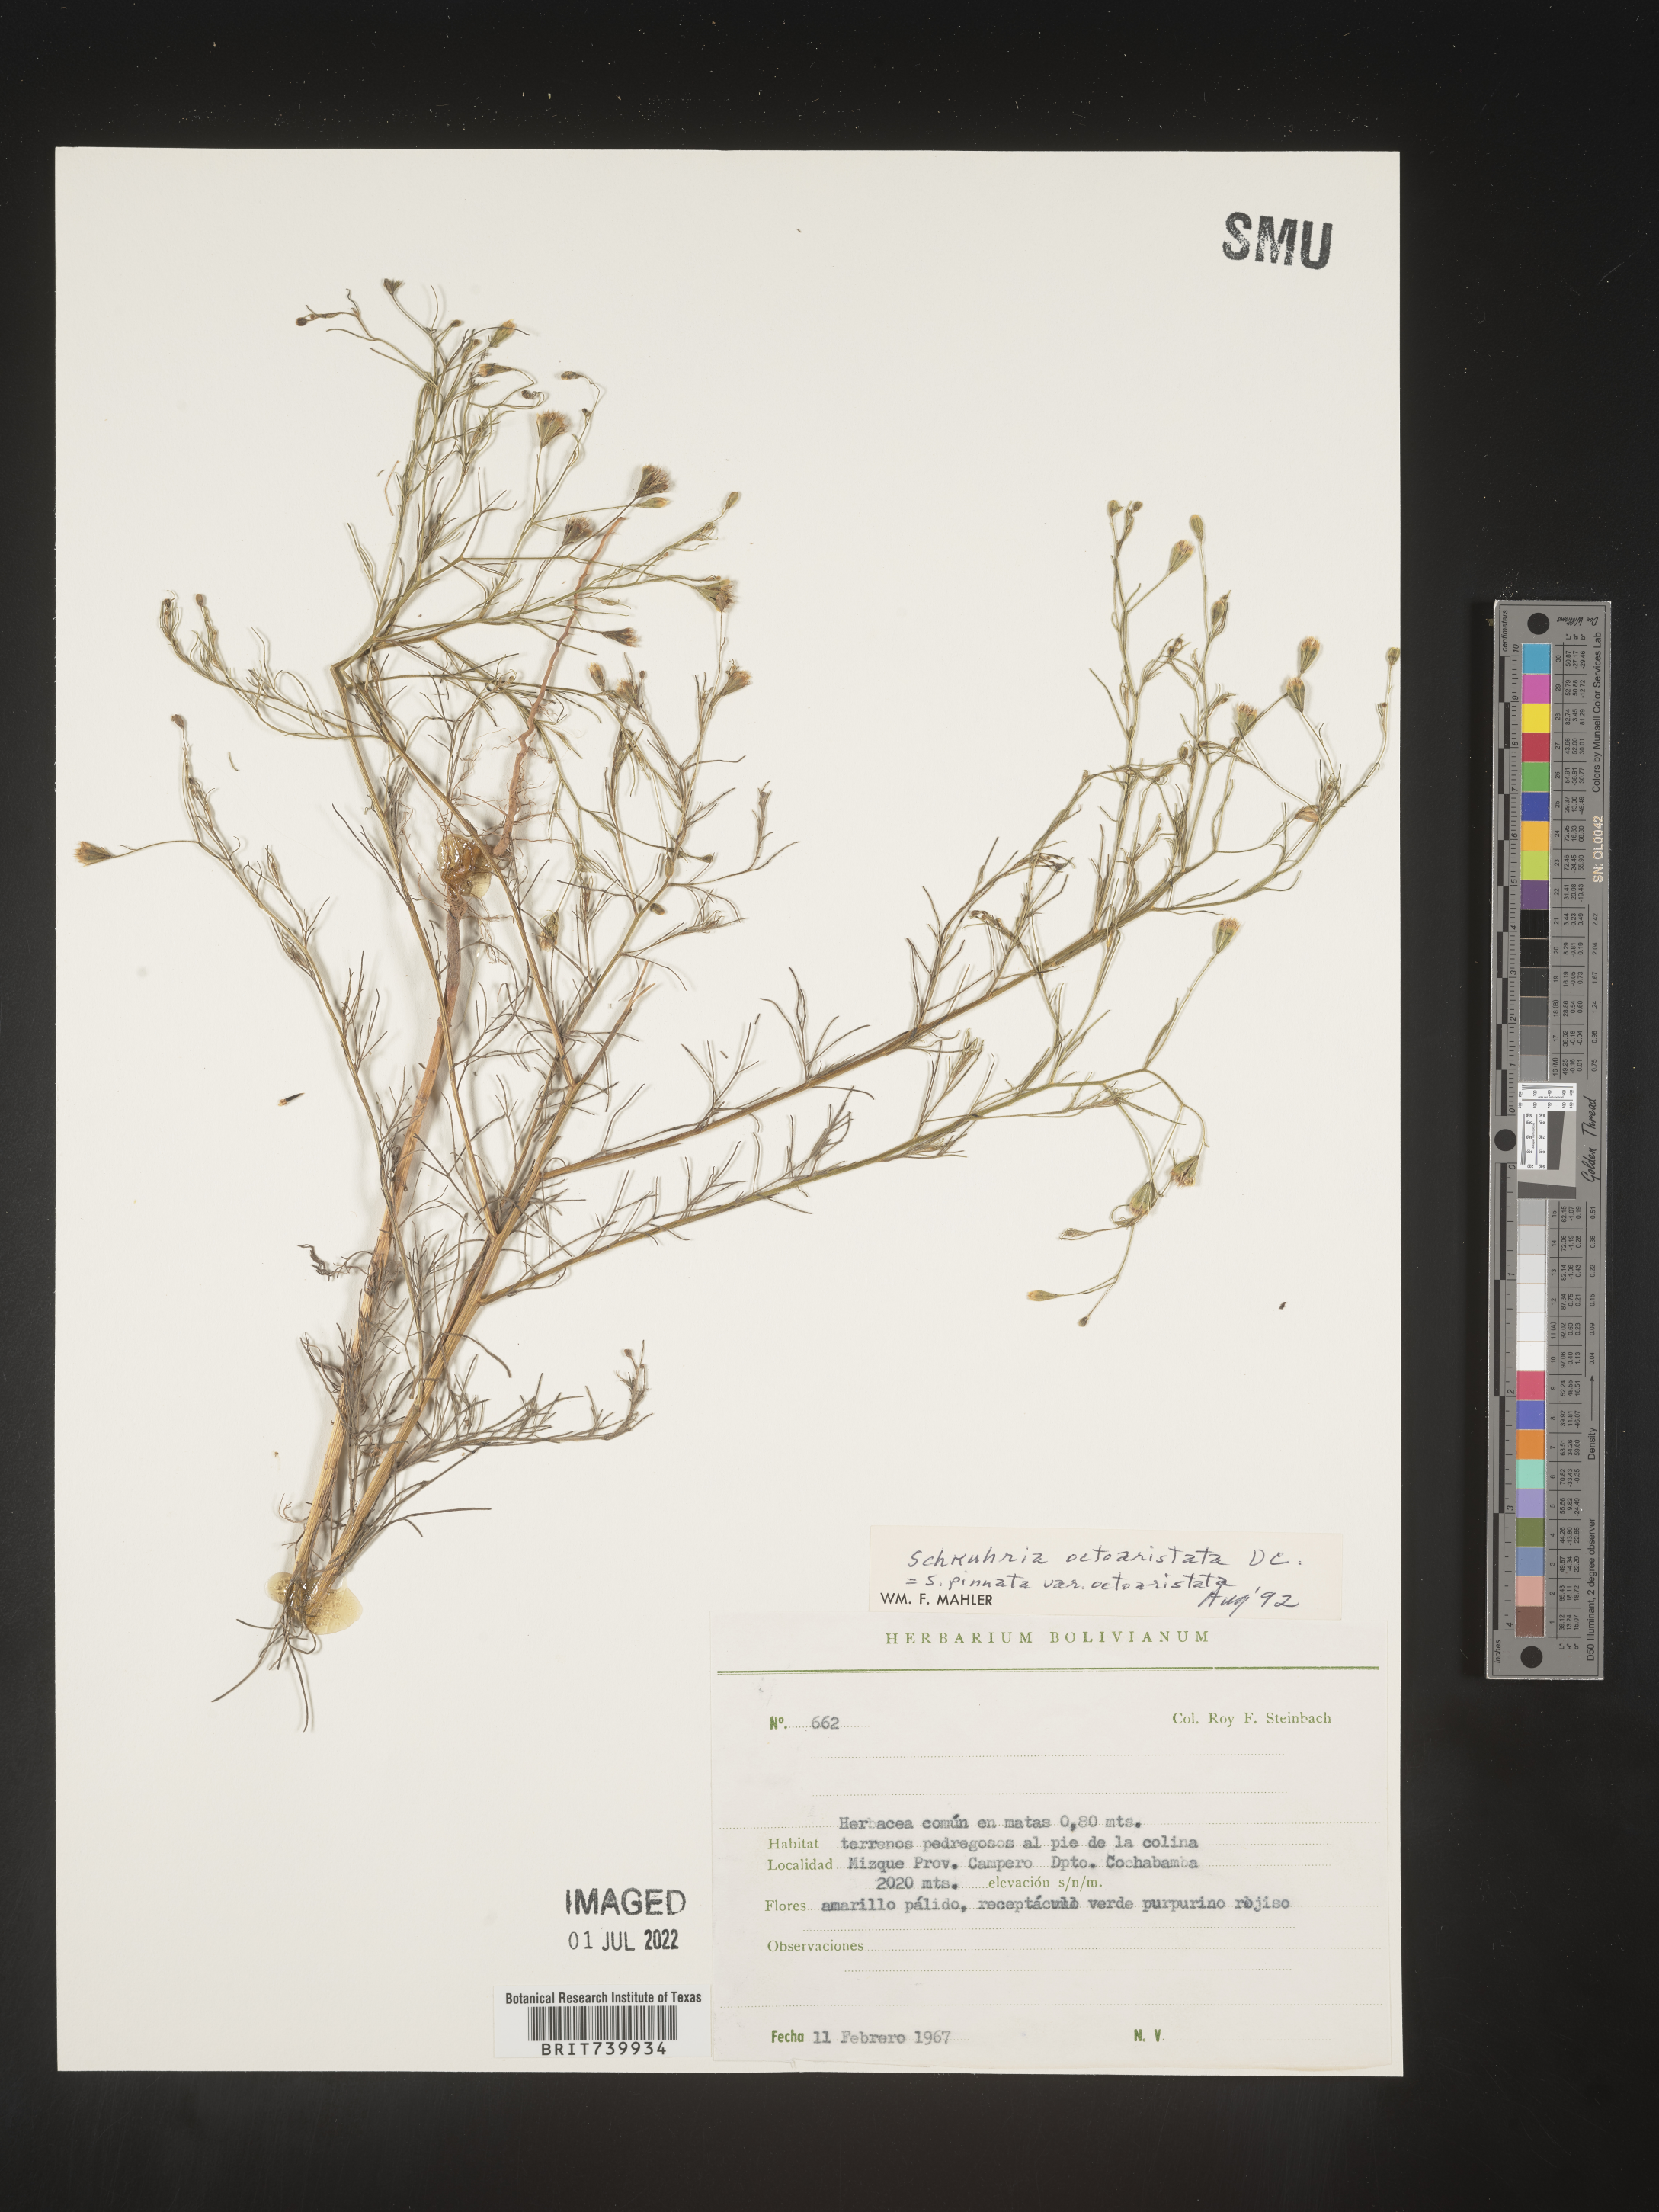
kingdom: Plantae
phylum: Tracheophyta
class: Magnoliopsida
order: Asterales
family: Asteraceae
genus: Schkuhria
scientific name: Schkuhria
